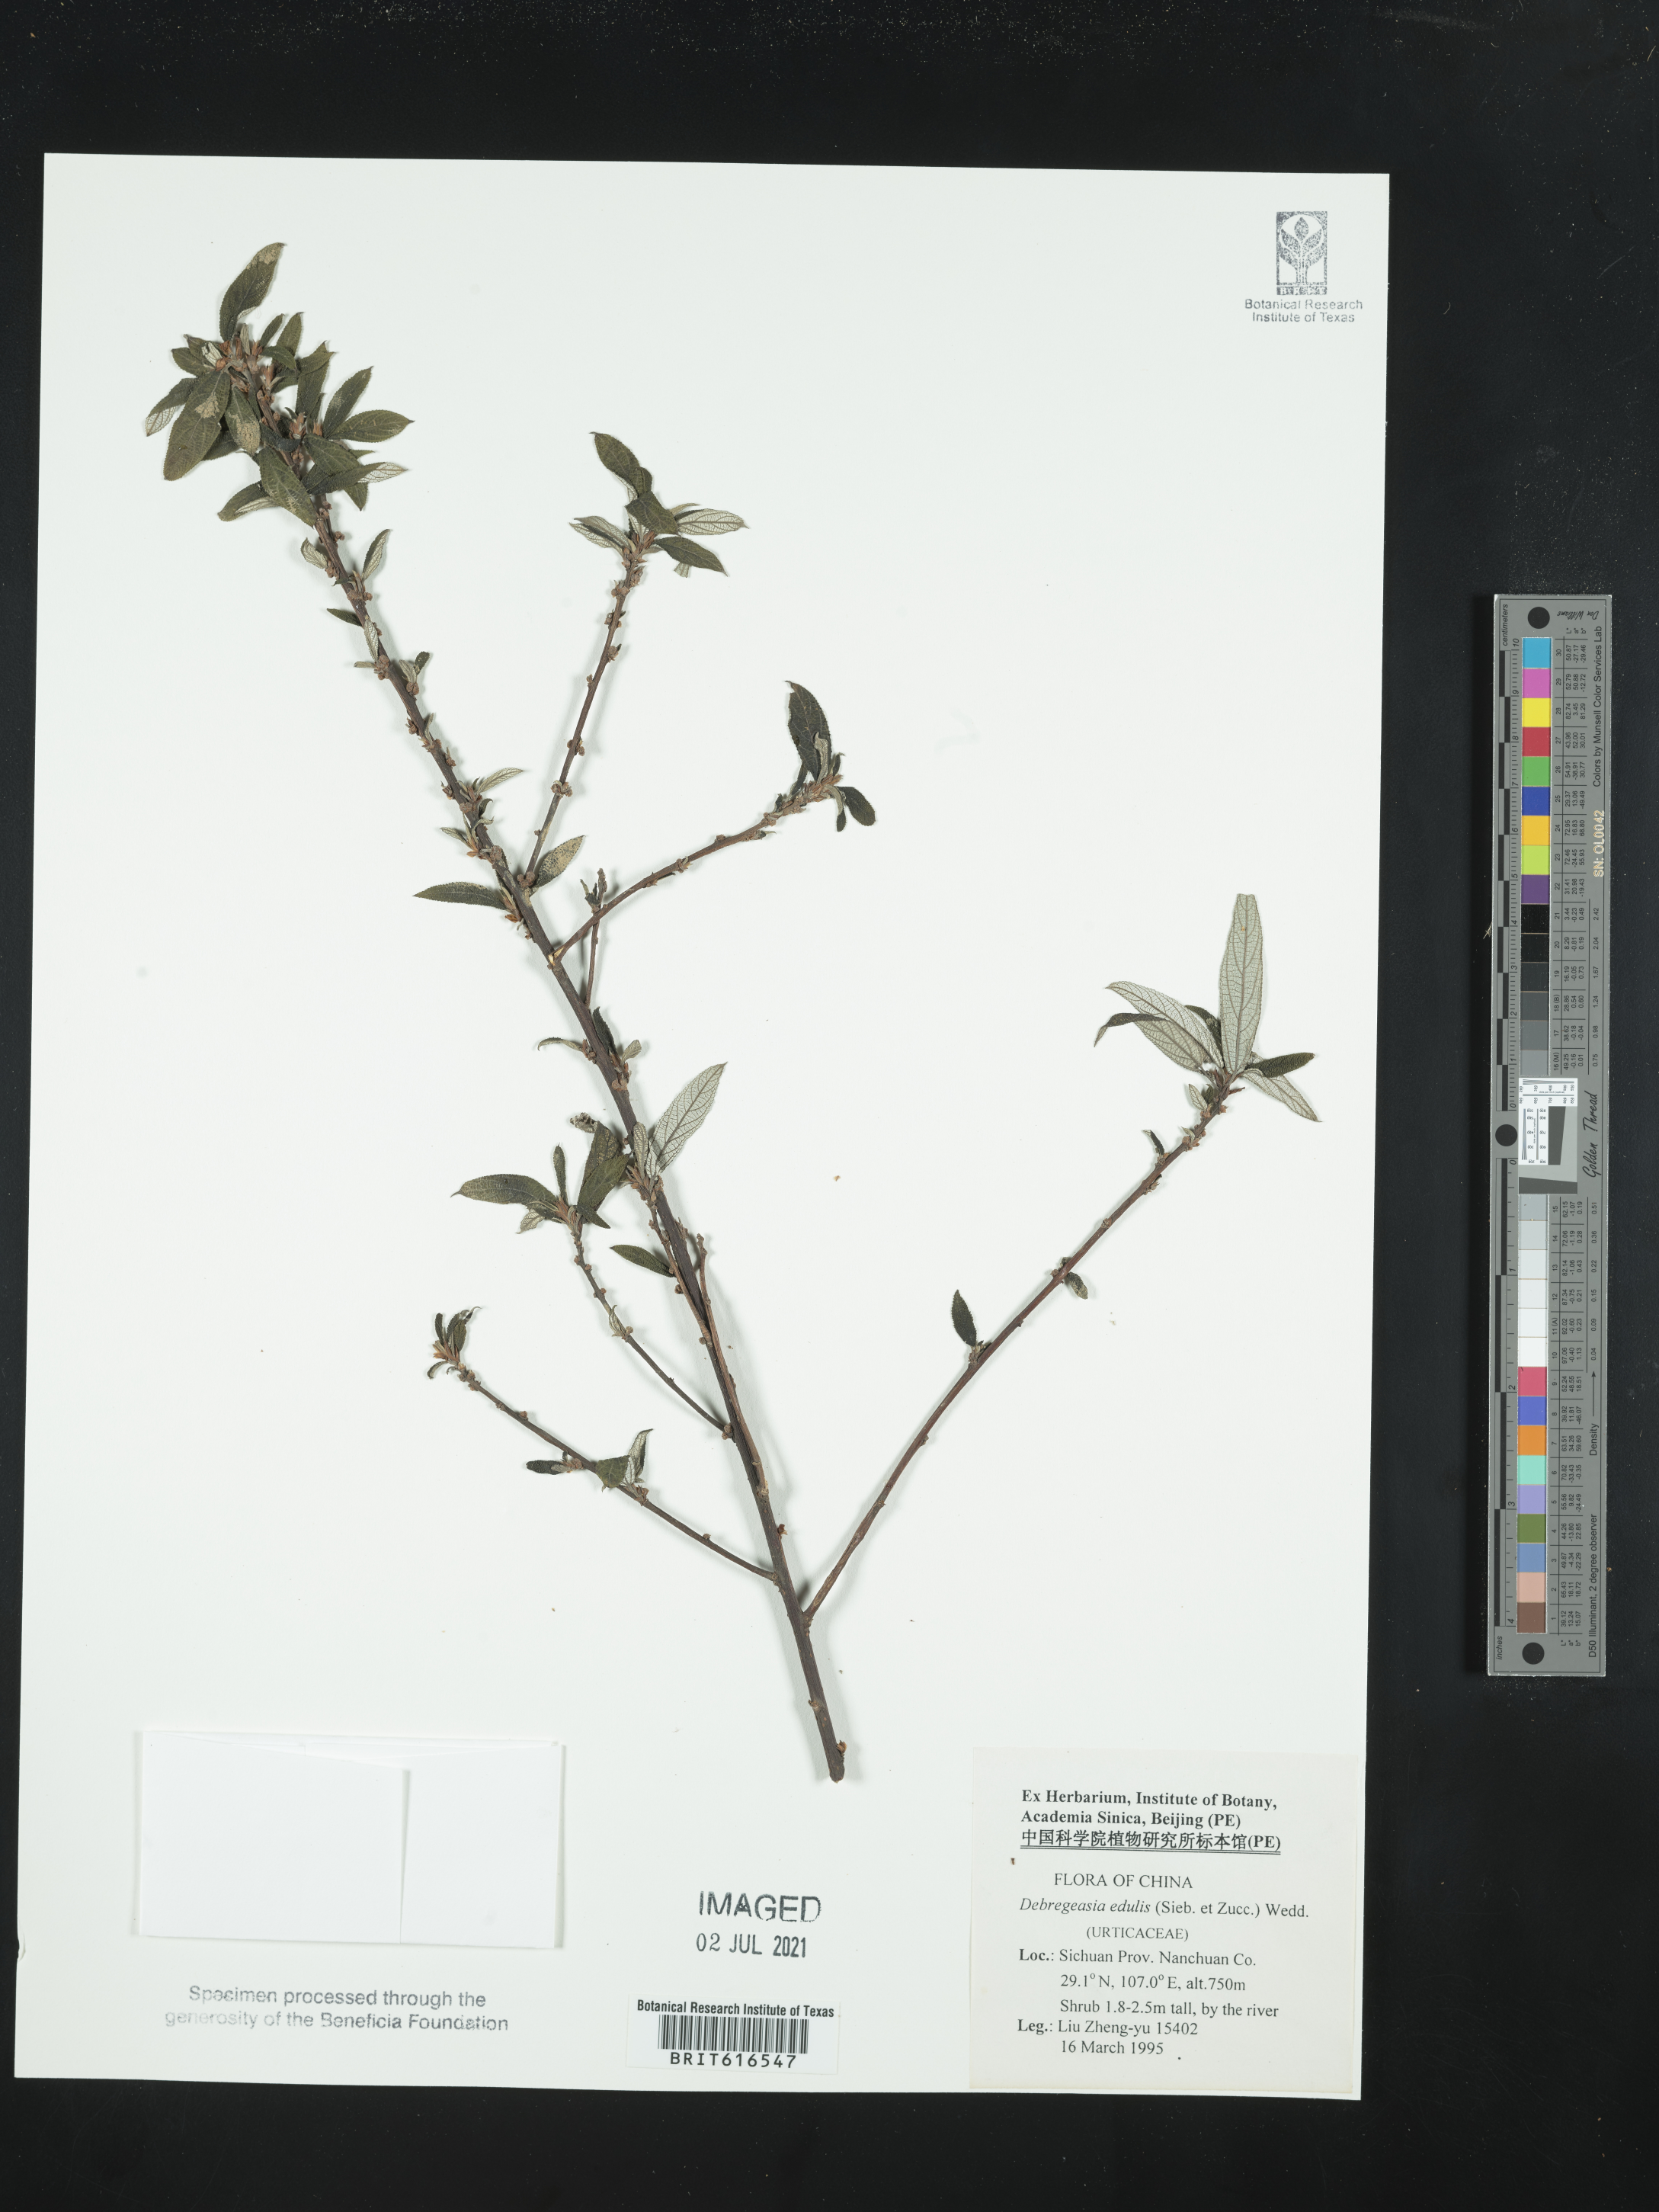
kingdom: Plantae
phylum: Tracheophyta
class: Magnoliopsida
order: Rosales
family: Urticaceae
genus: Debregeasia
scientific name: Debregeasia edulis
